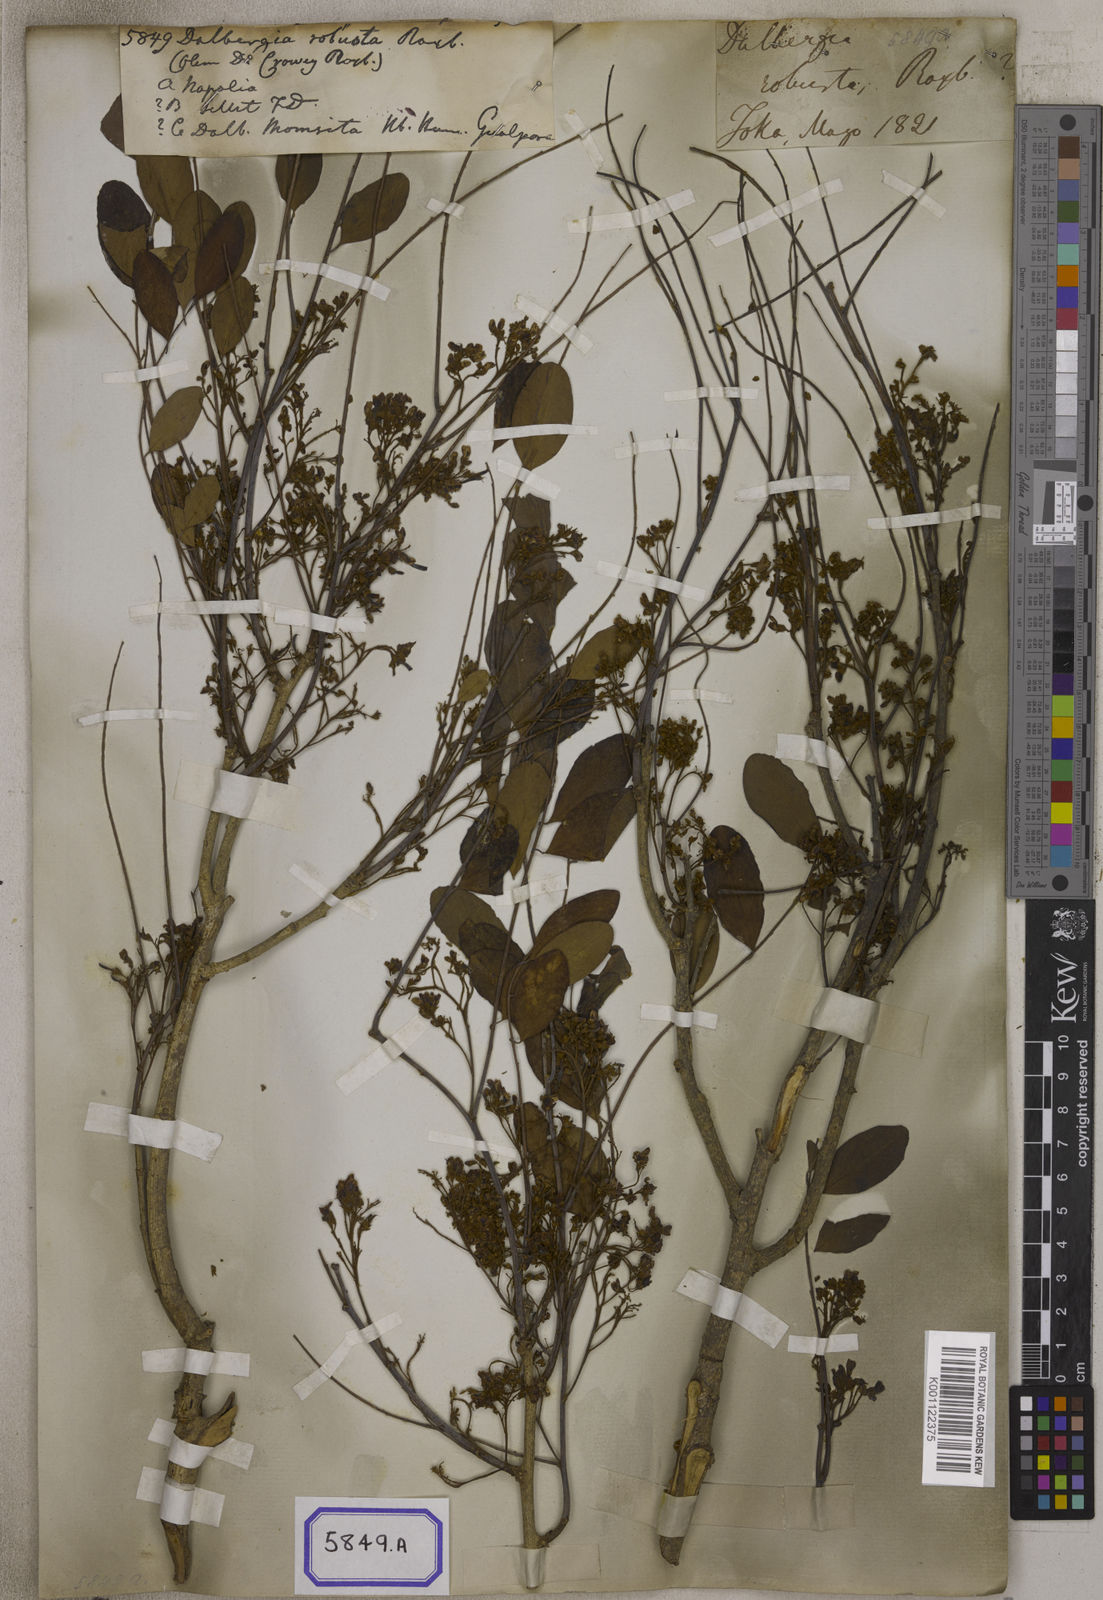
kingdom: Plantae
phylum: Tracheophyta
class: Magnoliopsida
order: Fabales
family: Fabaceae
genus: Dalbergia
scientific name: Dalbergia
